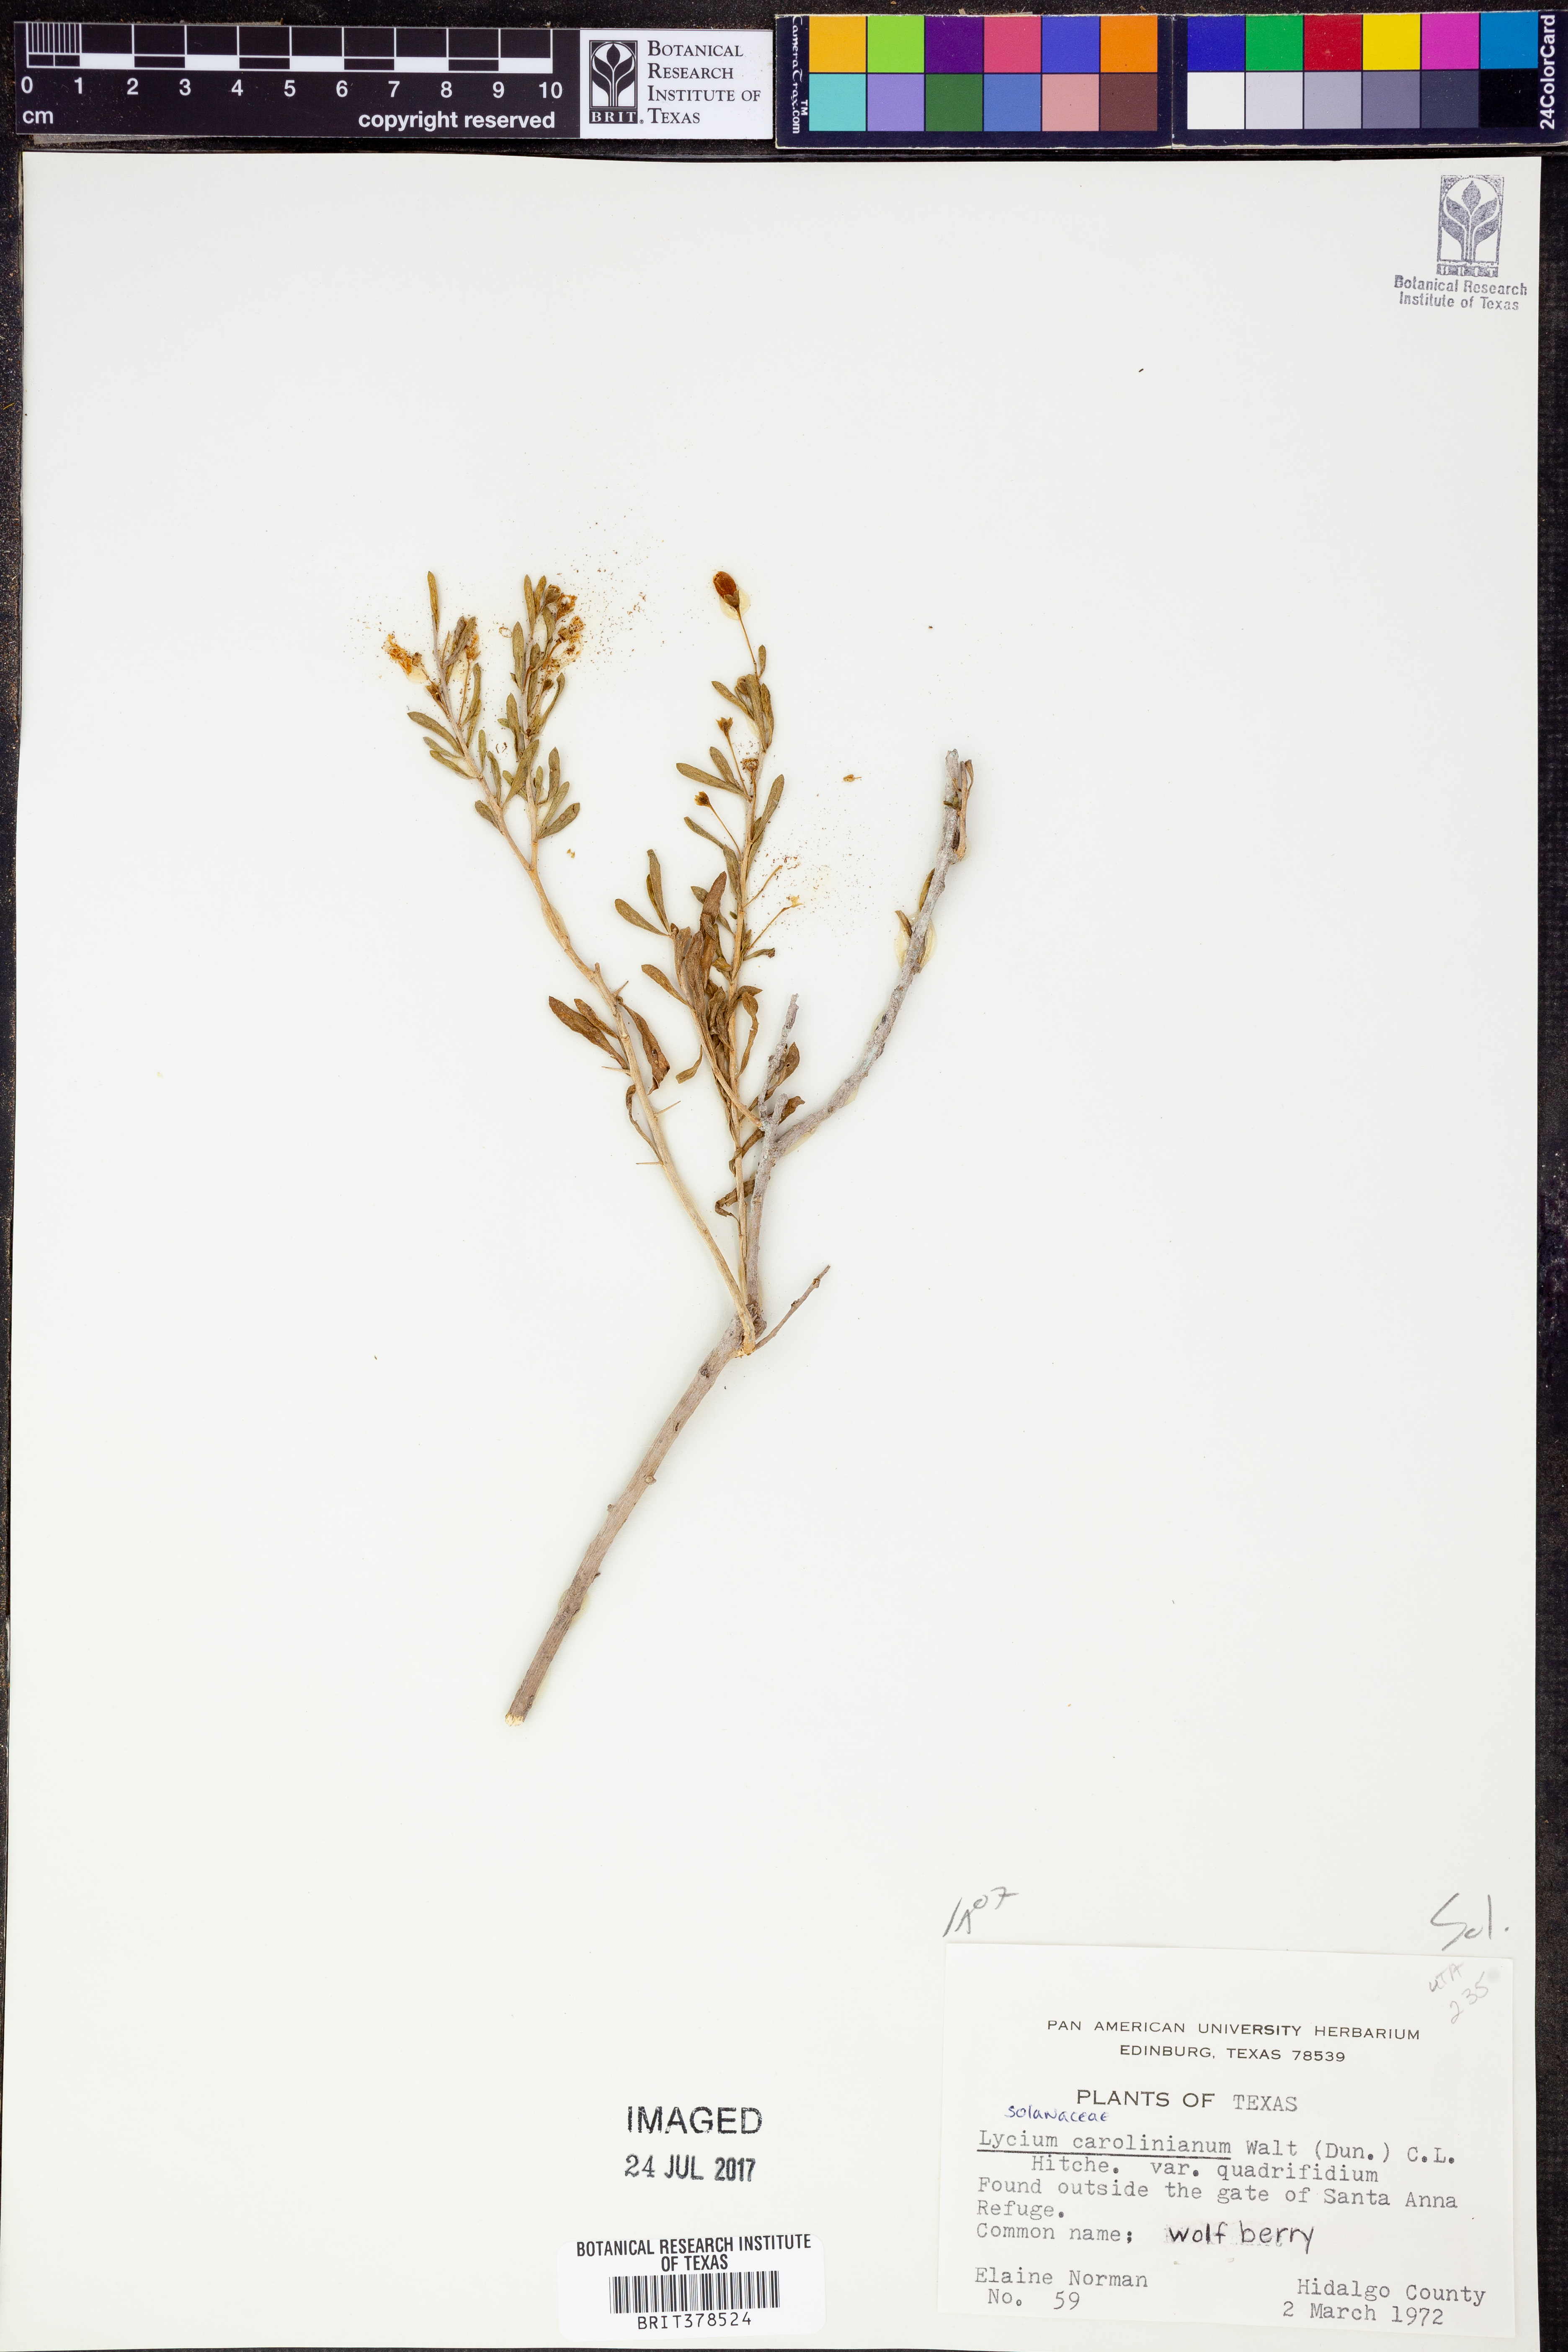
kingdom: Plantae
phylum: Tracheophyta
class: Magnoliopsida
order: Solanales
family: Solanaceae
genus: Lycium
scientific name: Lycium carolinianum
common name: Christmasberry
